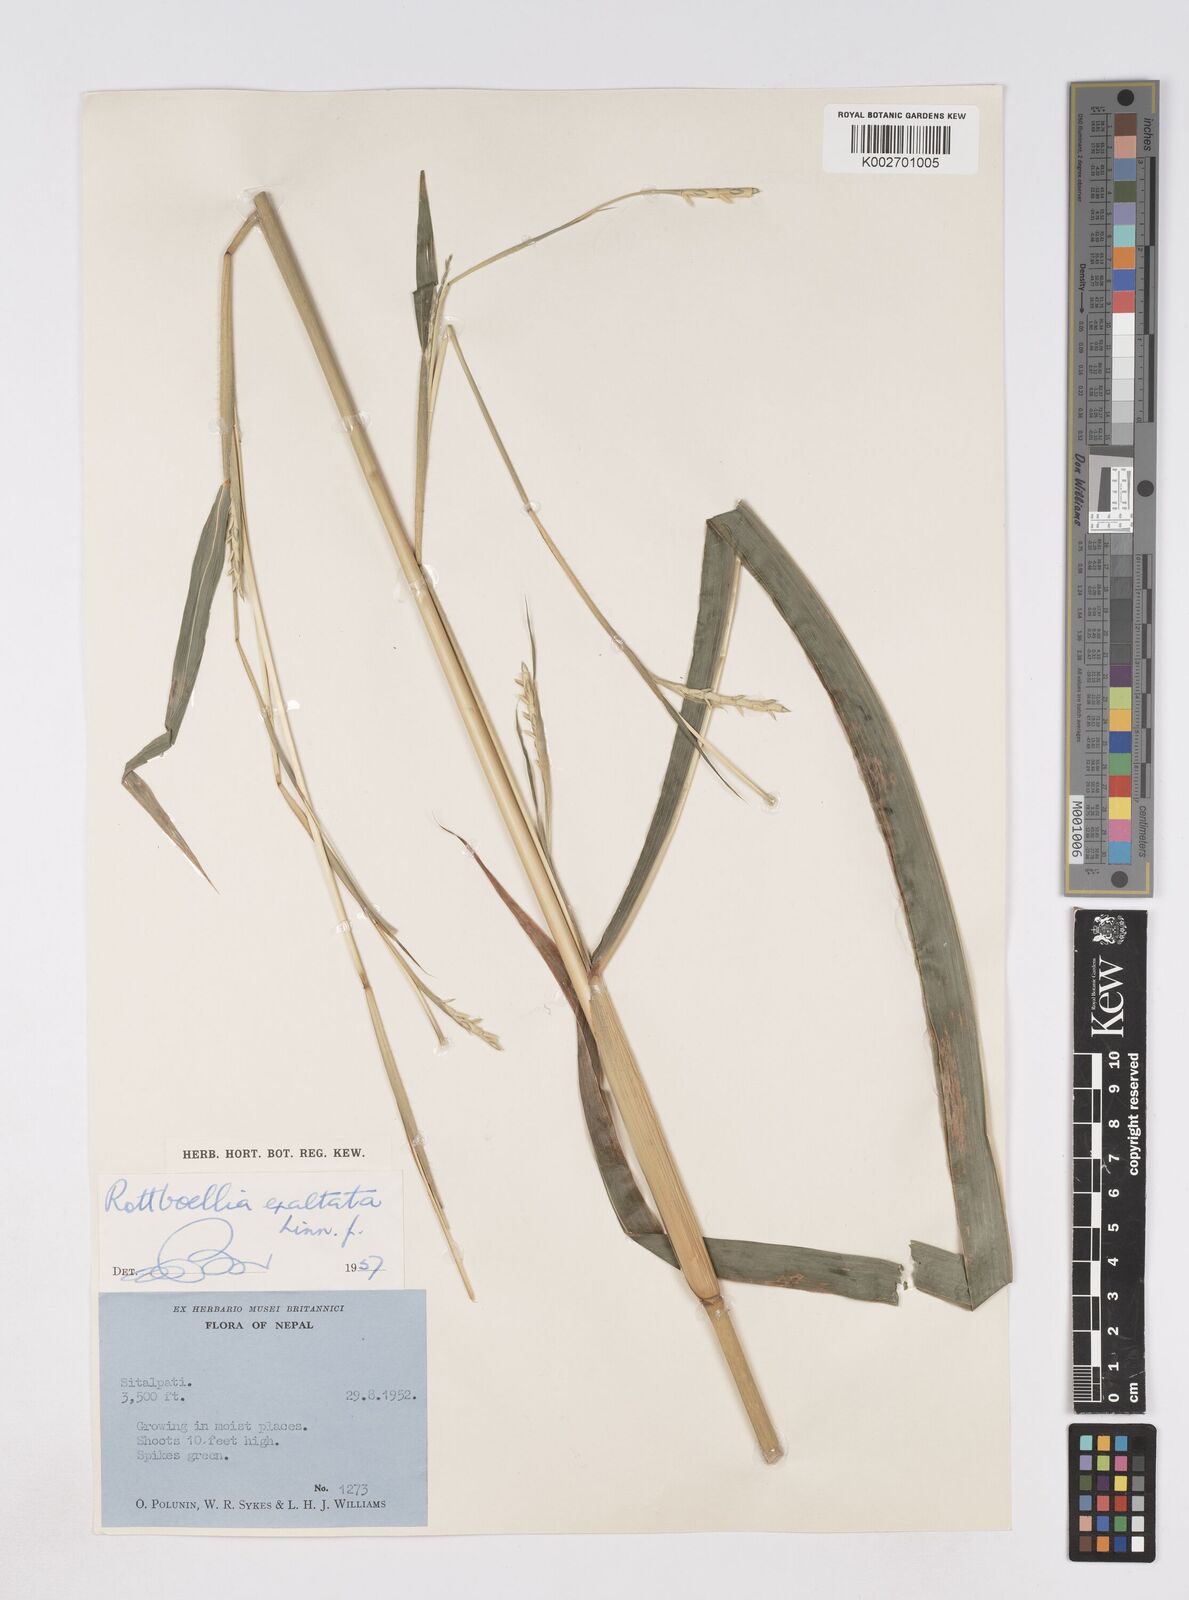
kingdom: Plantae
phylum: Tracheophyta
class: Liliopsida
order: Poales
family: Poaceae
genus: Ophiuros
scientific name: Ophiuros exaltatus
